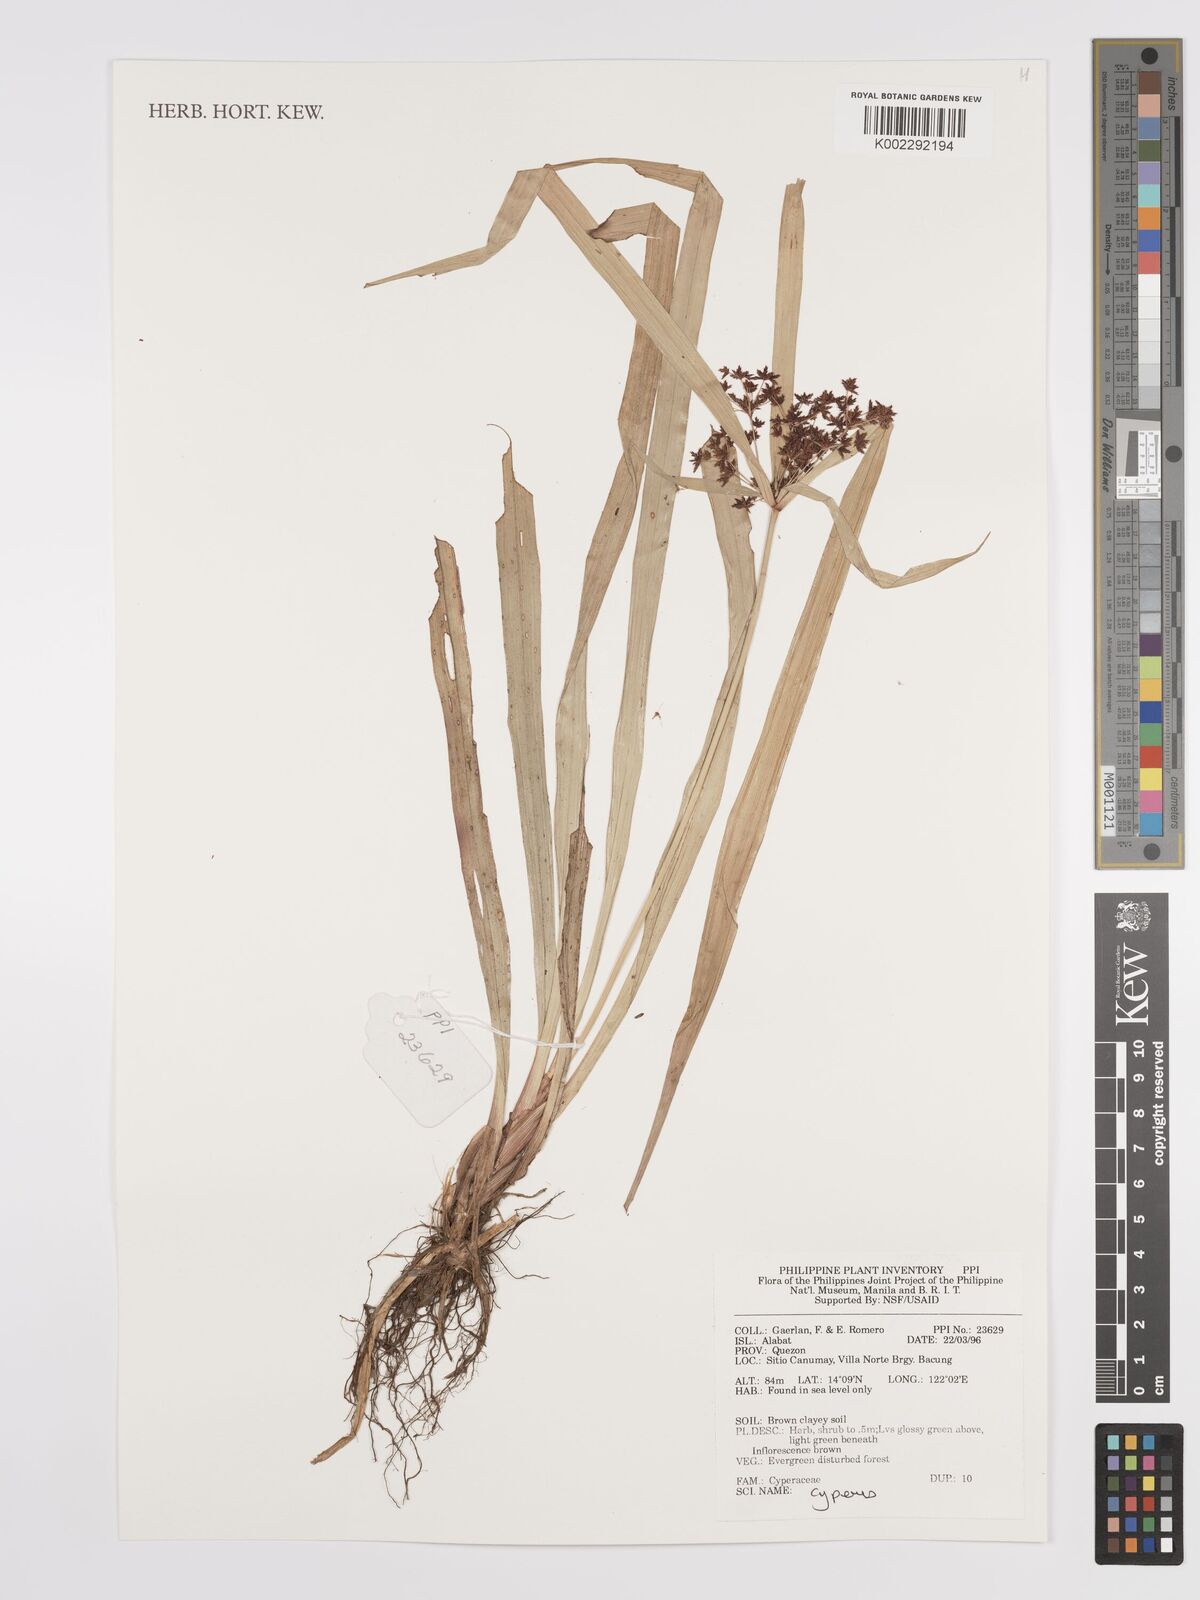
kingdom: Plantae
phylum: Tracheophyta
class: Liliopsida
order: Poales
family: Cyperaceae
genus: Cyperus
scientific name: Cyperus
